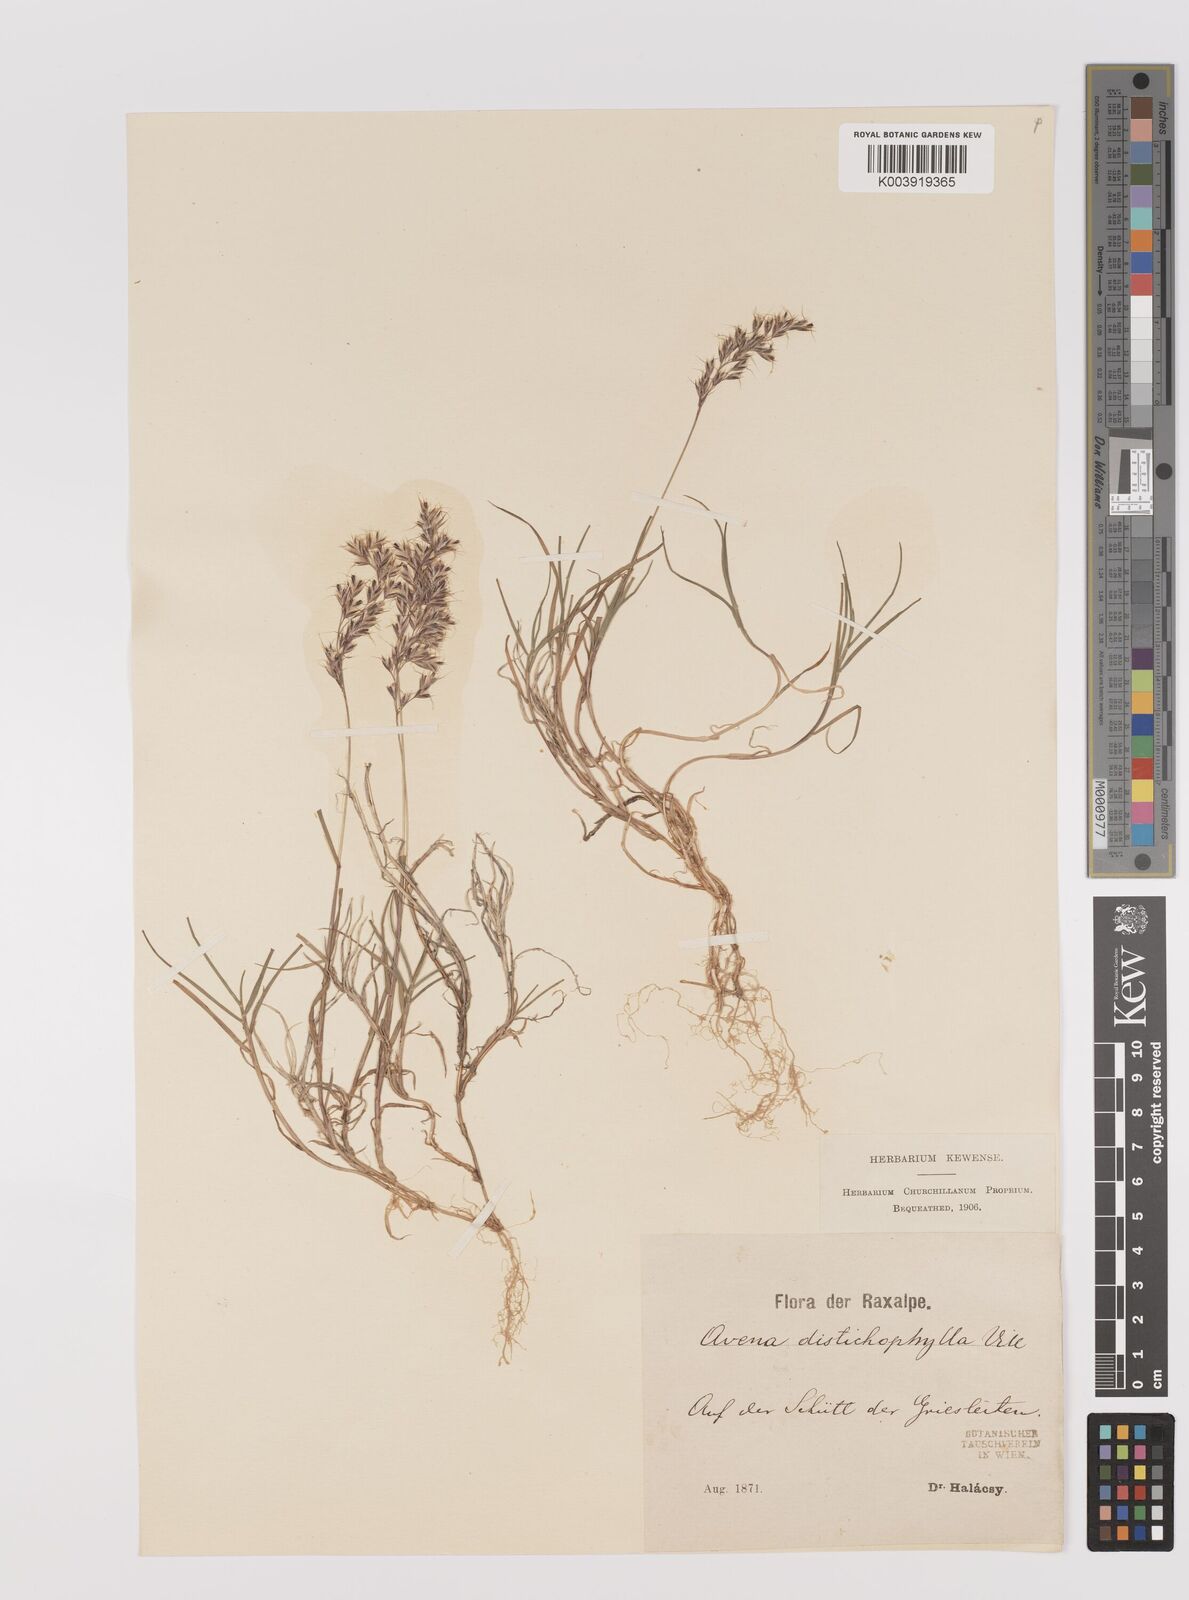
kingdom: Plantae
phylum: Tracheophyta
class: Liliopsida
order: Poales
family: Poaceae
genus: Acrospelion
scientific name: Acrospelion distichophyllum
